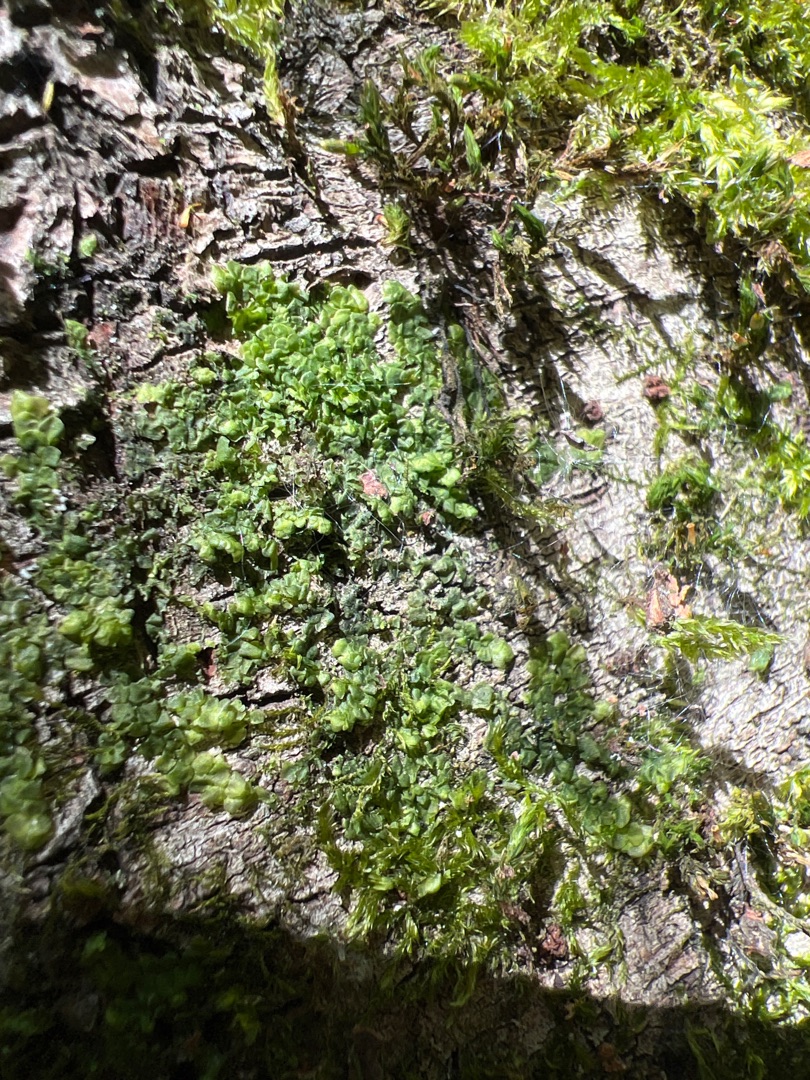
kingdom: Plantae
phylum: Marchantiophyta
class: Jungermanniopsida
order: Porellales
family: Radulaceae
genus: Radula
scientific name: Radula complanata
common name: Almindelig spartelmos
